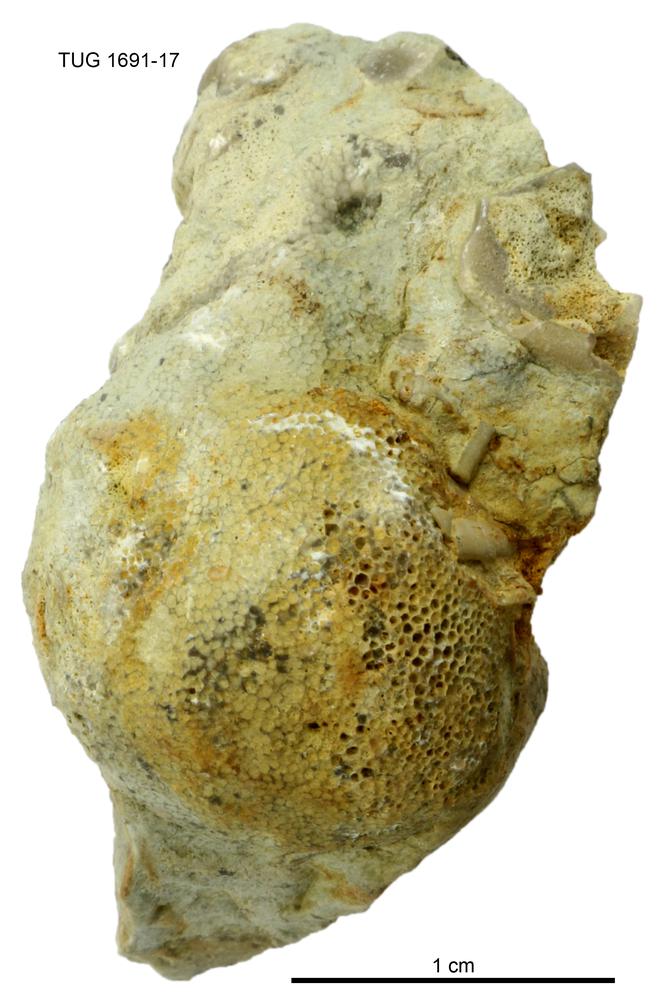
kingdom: Animalia
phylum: Bryozoa
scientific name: Bryozoa
